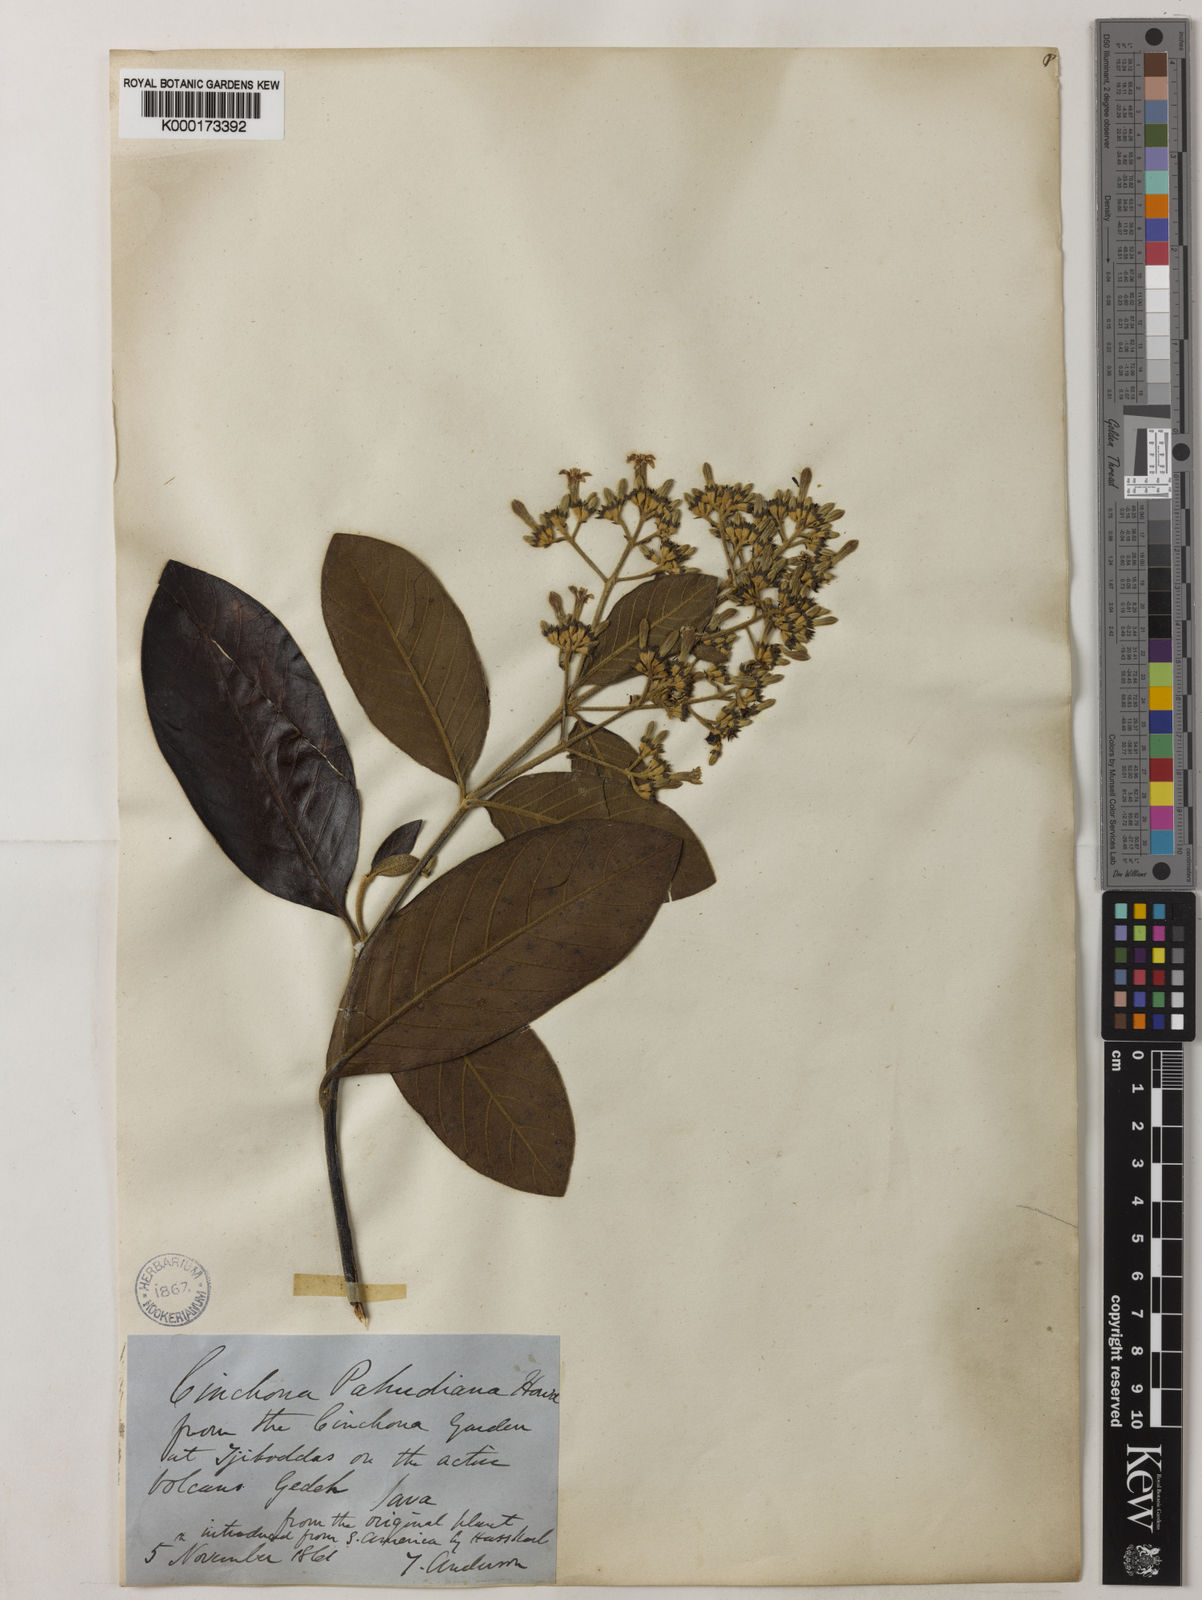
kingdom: Plantae
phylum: Tracheophyta
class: Magnoliopsida
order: Gentianales
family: Rubiaceae
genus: Cinchona
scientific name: Cinchona calisaya
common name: Ledgerbark
